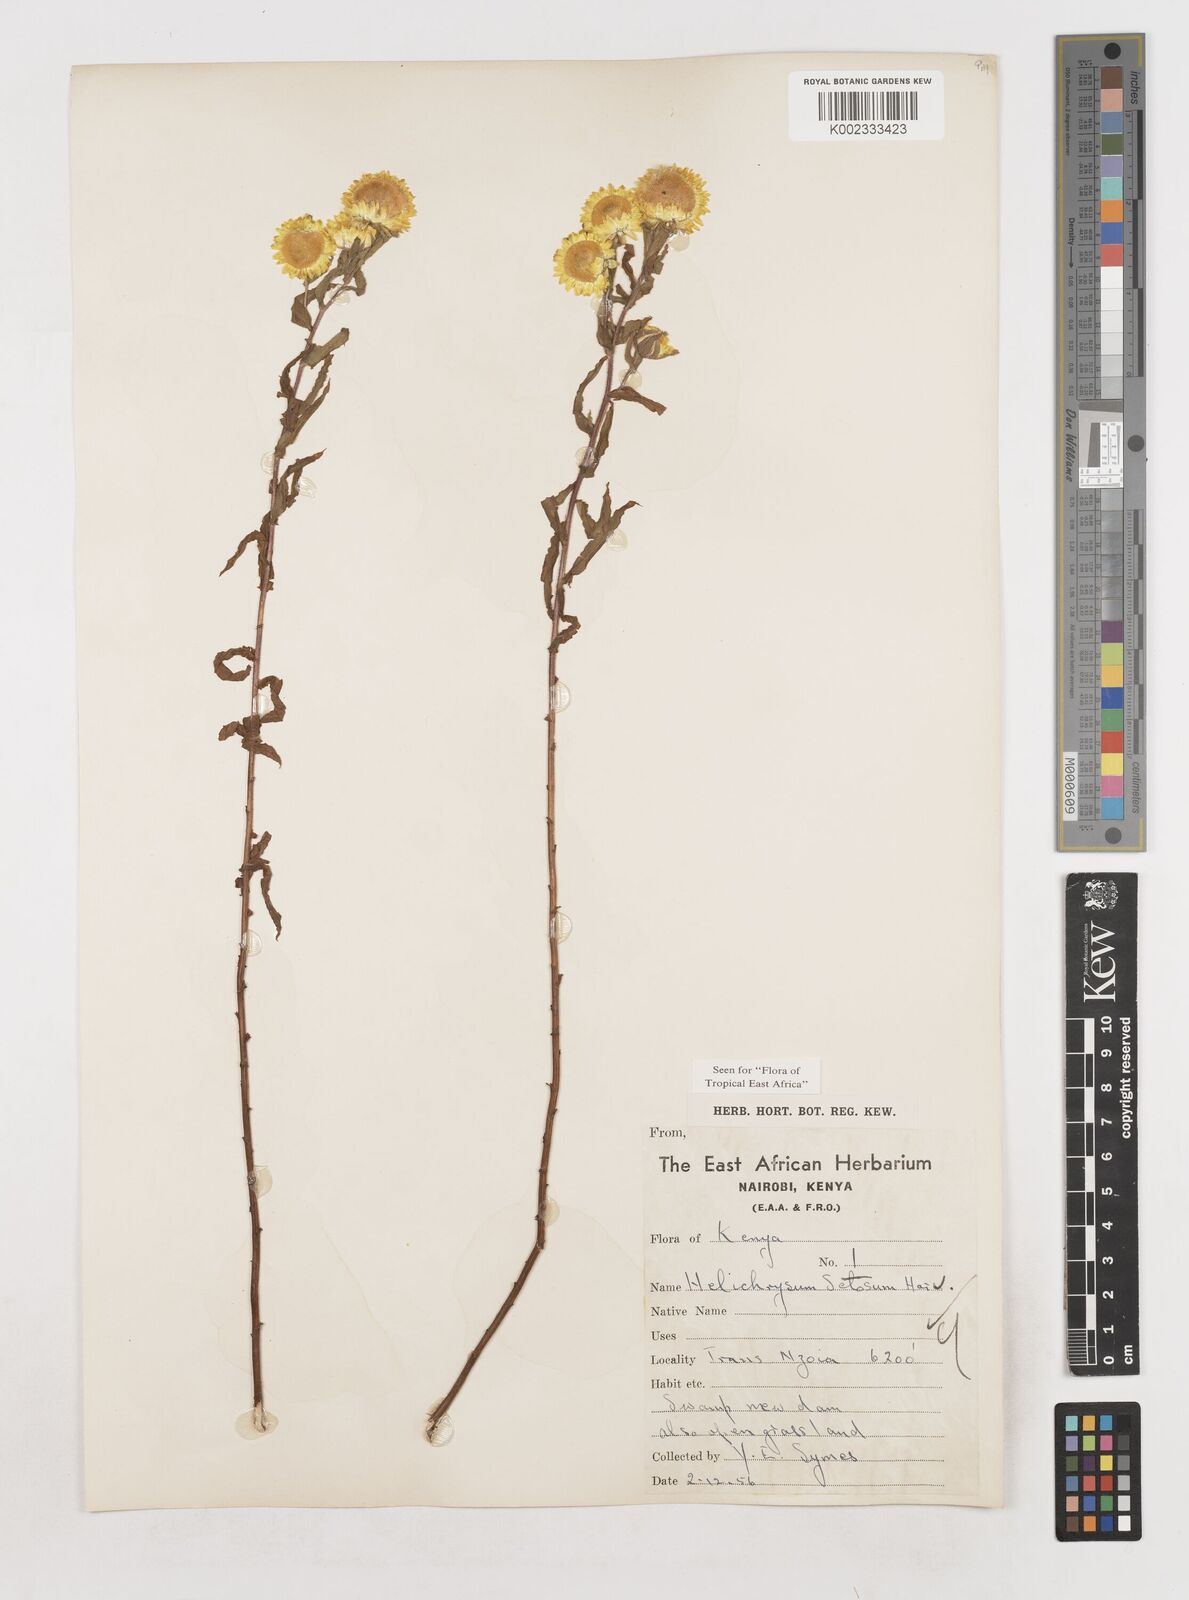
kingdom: Plantae
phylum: Tracheophyta
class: Magnoliopsida
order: Asterales
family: Asteraceae
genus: Helichrysum
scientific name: Helichrysum setosum
